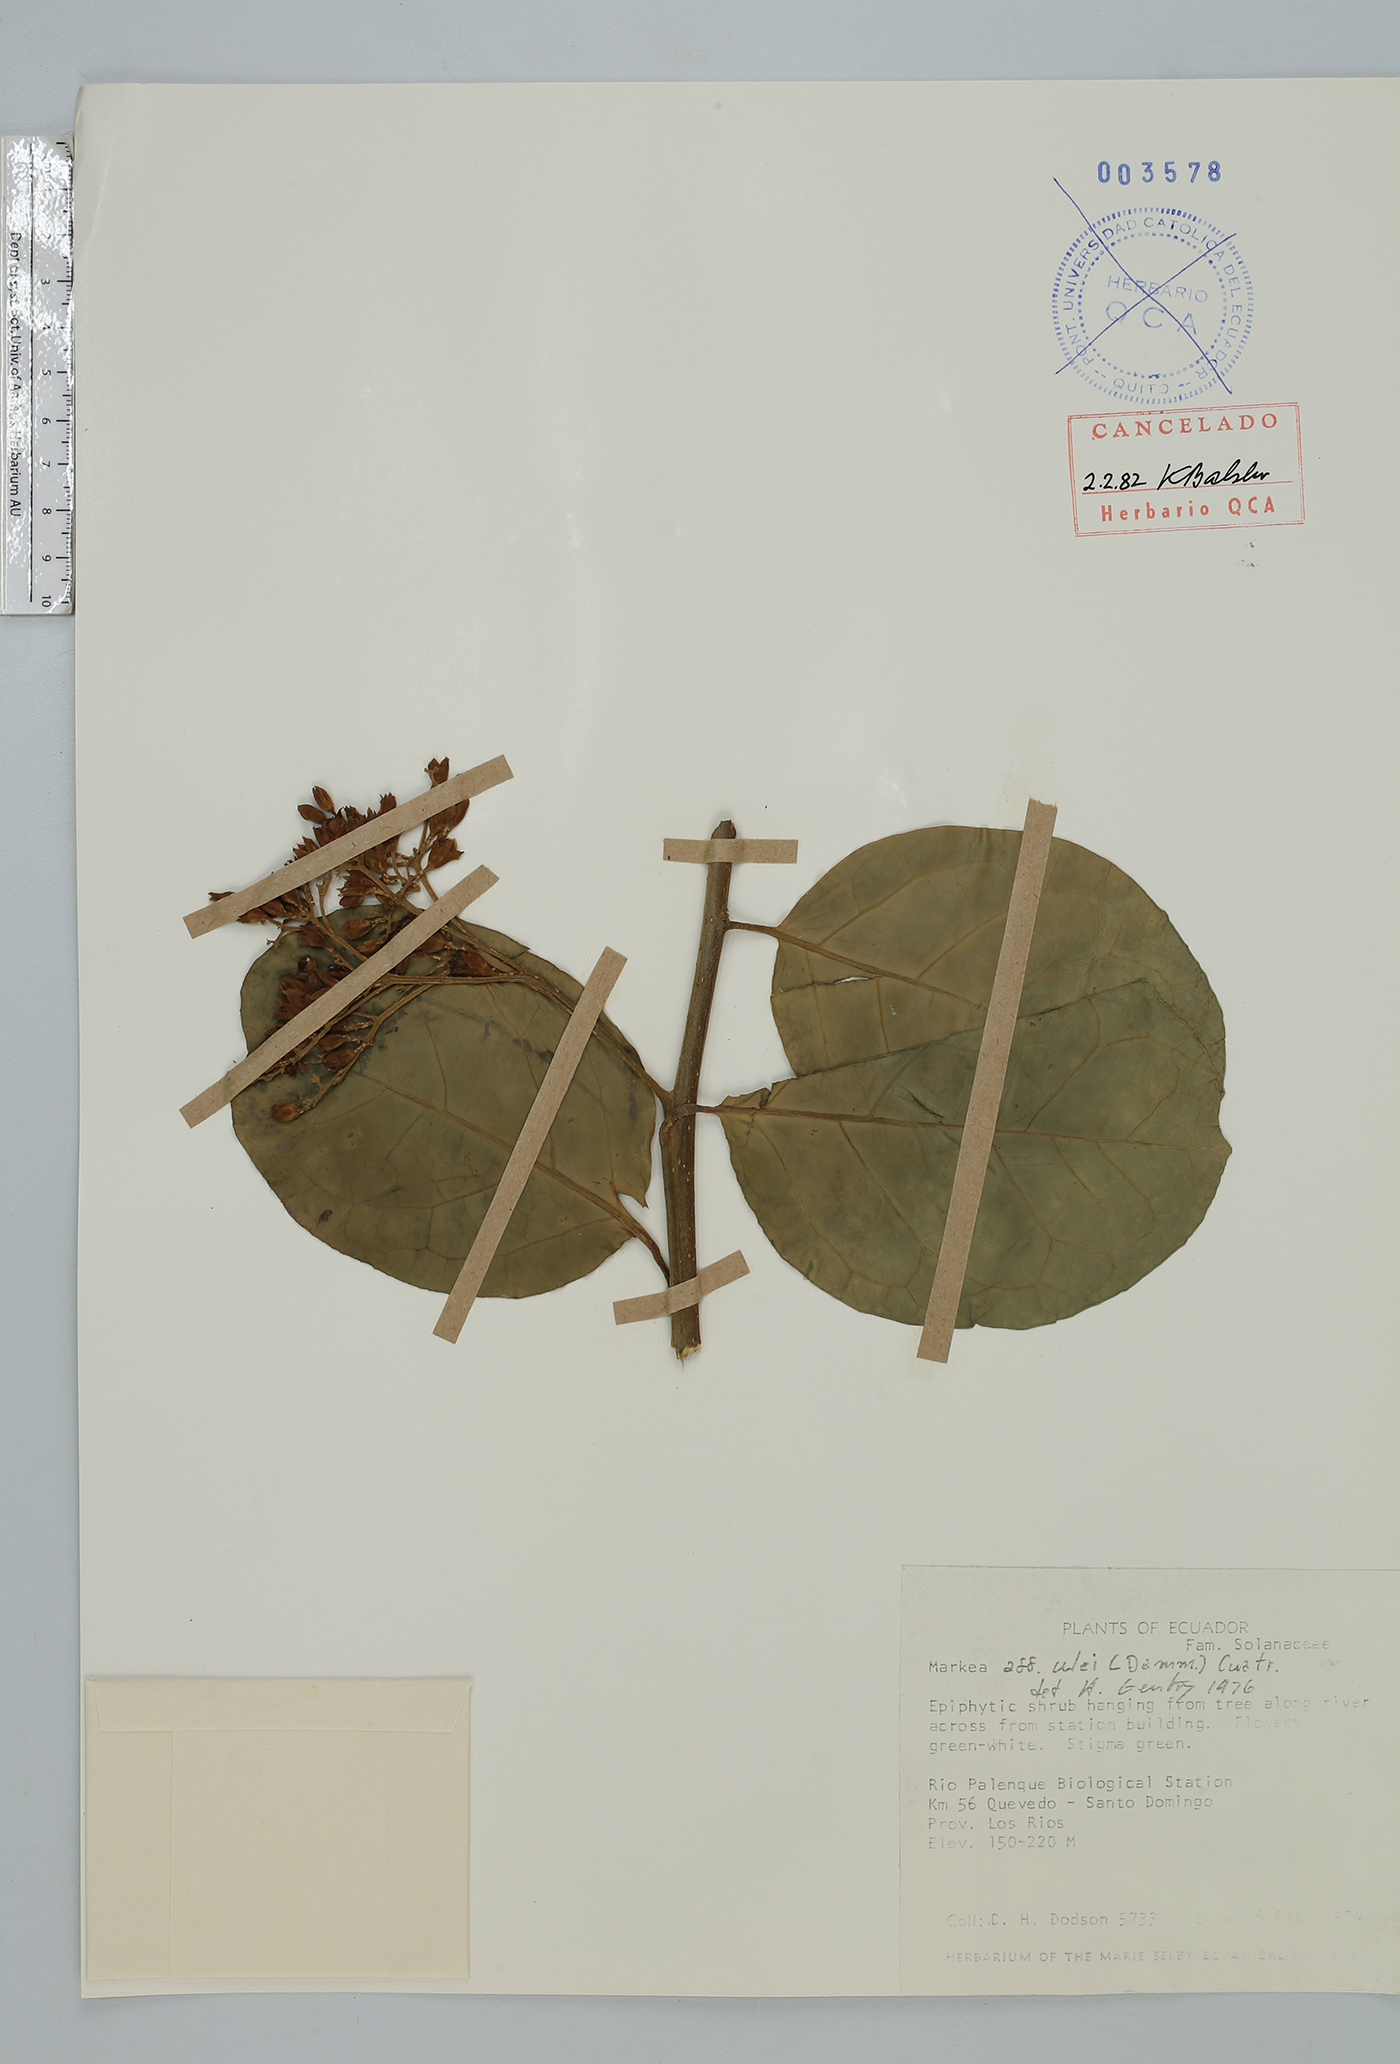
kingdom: Plantae
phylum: Tracheophyta
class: Magnoliopsida
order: Solanales
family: Solanaceae
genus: Markea
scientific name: Markea pavonii
